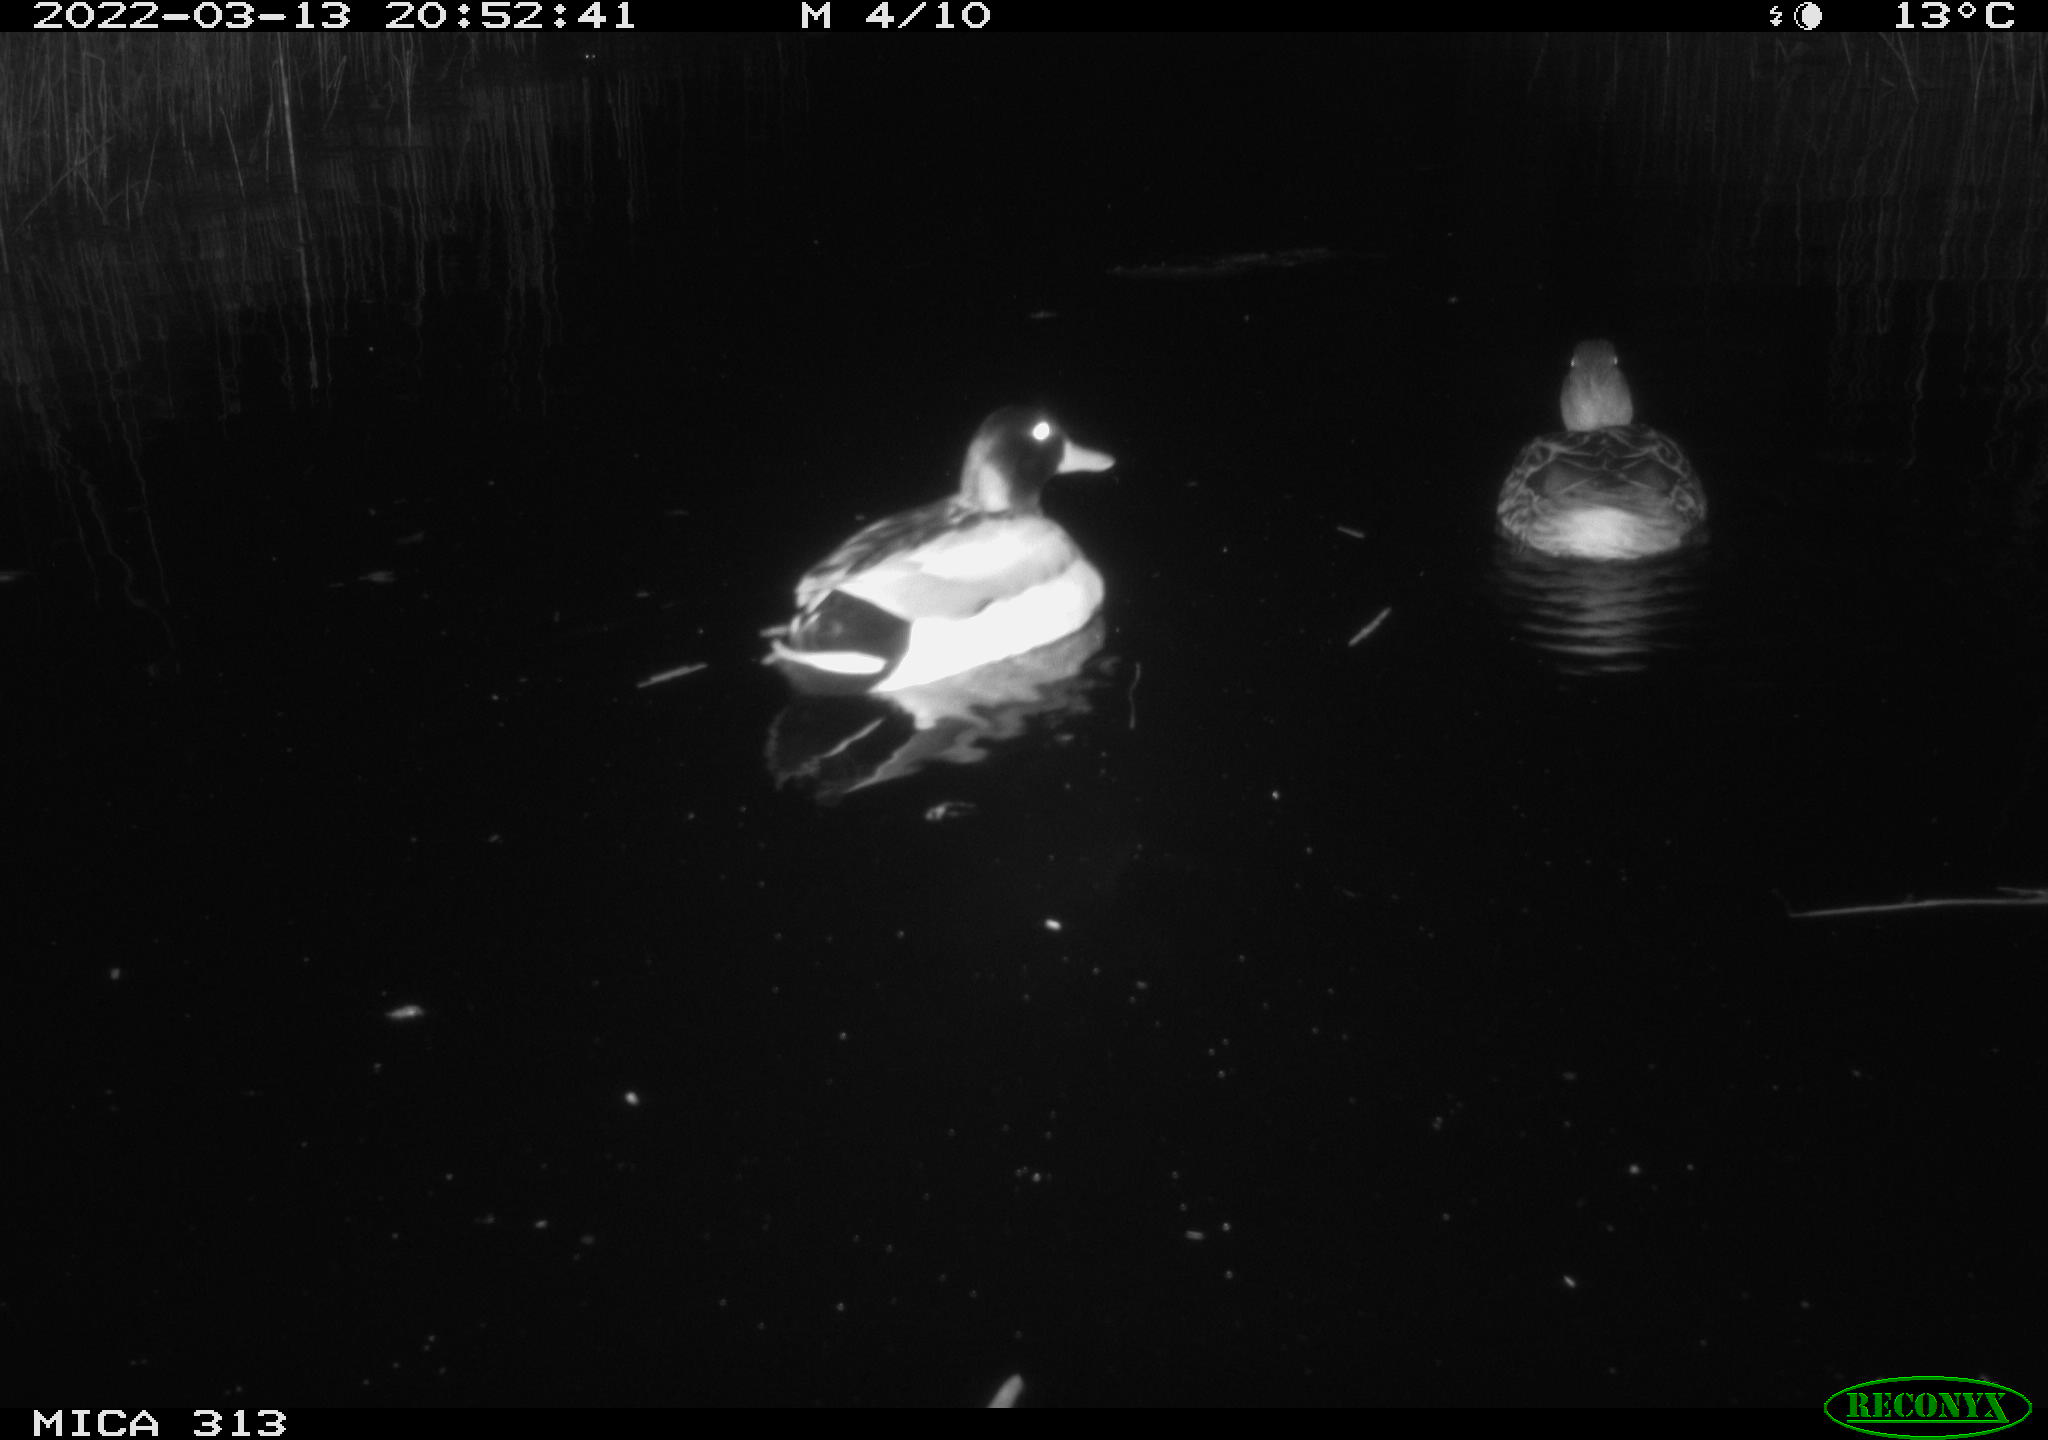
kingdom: Animalia
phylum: Chordata
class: Aves
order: Anseriformes
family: Anatidae
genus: Anas
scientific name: Anas platyrhynchos
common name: Mallard
